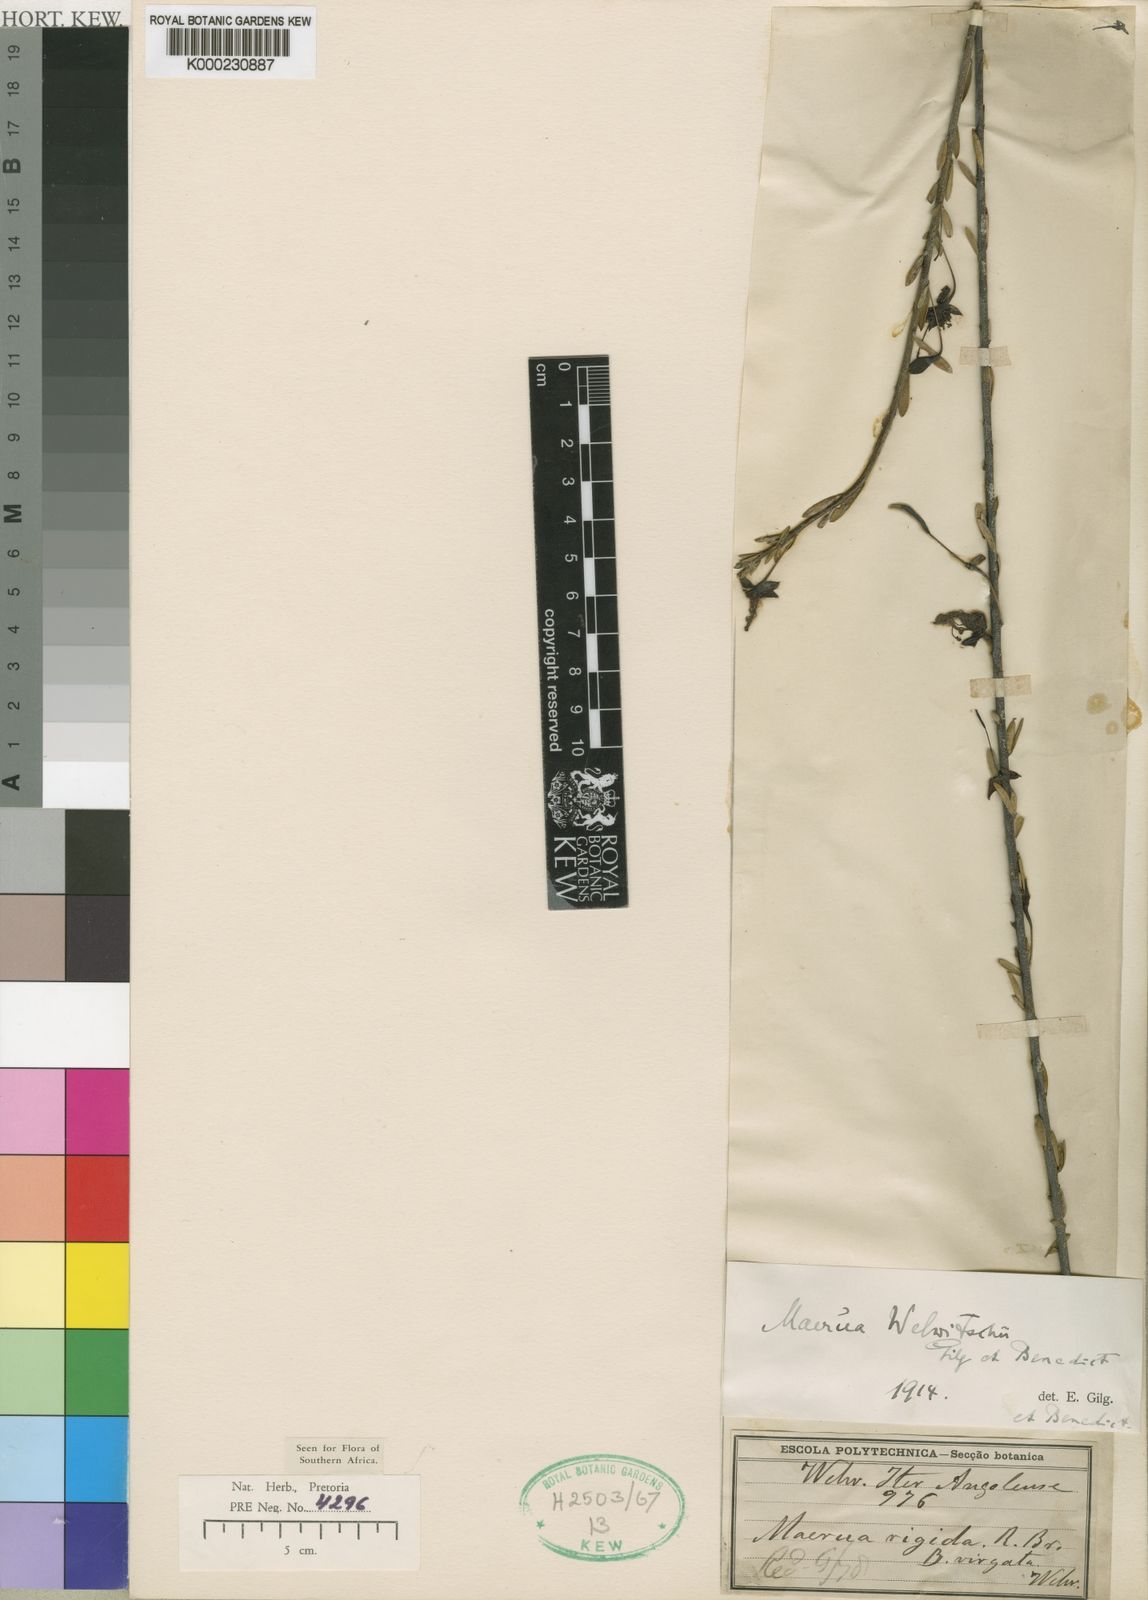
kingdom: Plantae
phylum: Tracheophyta
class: Magnoliopsida
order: Brassicales
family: Capparaceae
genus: Maerua
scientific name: Maerua buxifolia
